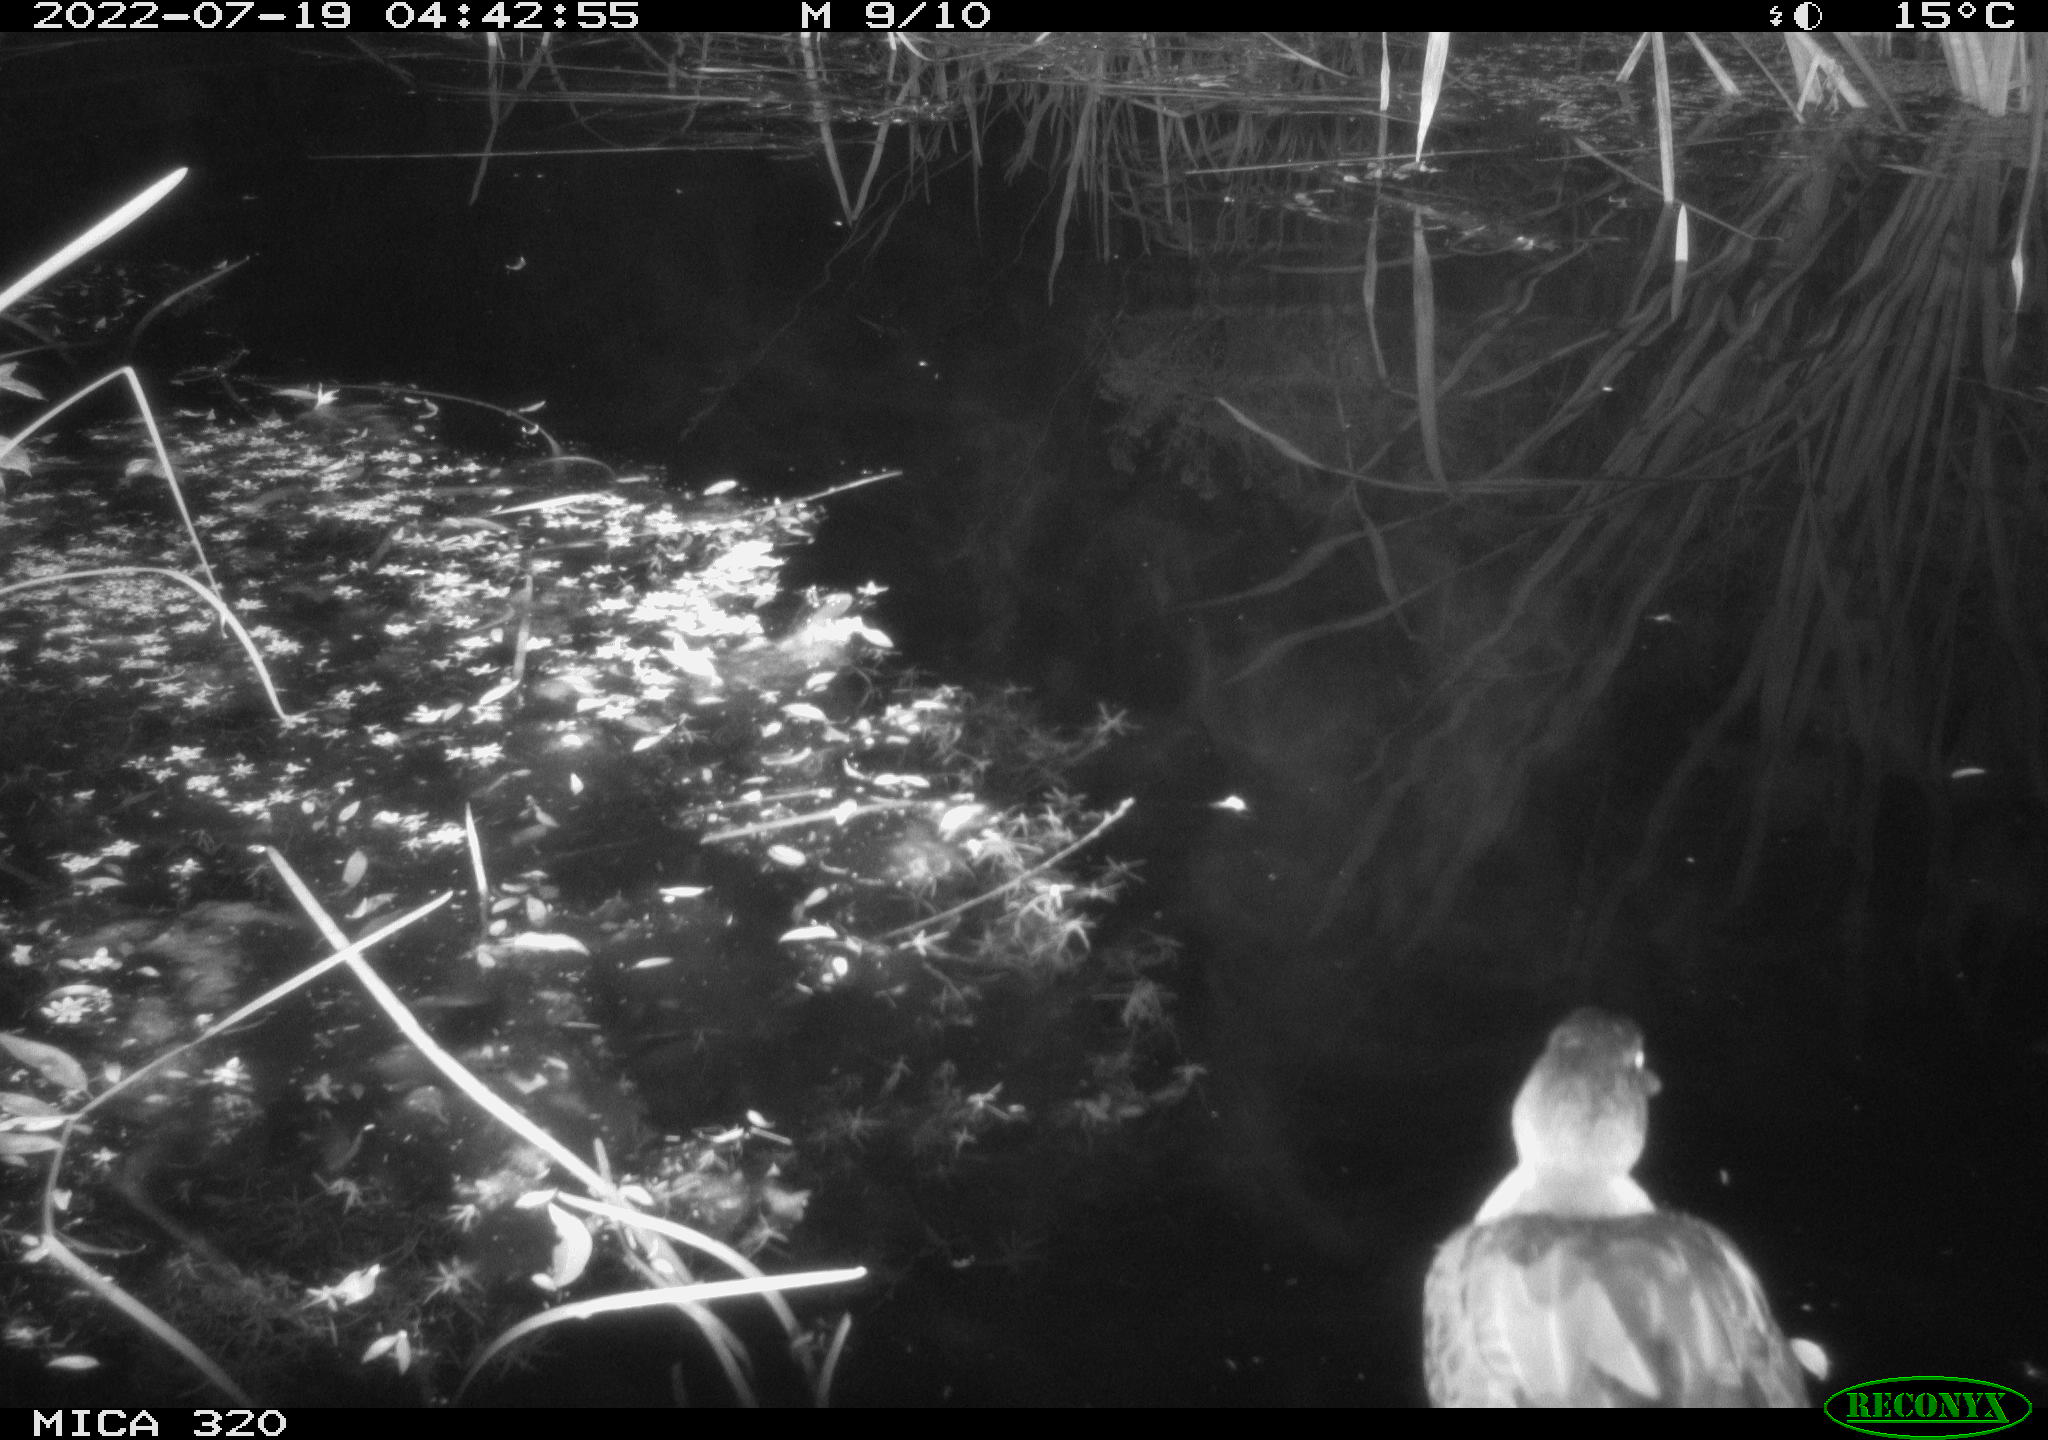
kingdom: Animalia
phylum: Chordata
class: Aves
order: Anseriformes
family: Anatidae
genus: Anas
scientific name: Anas platyrhynchos
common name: Mallard
